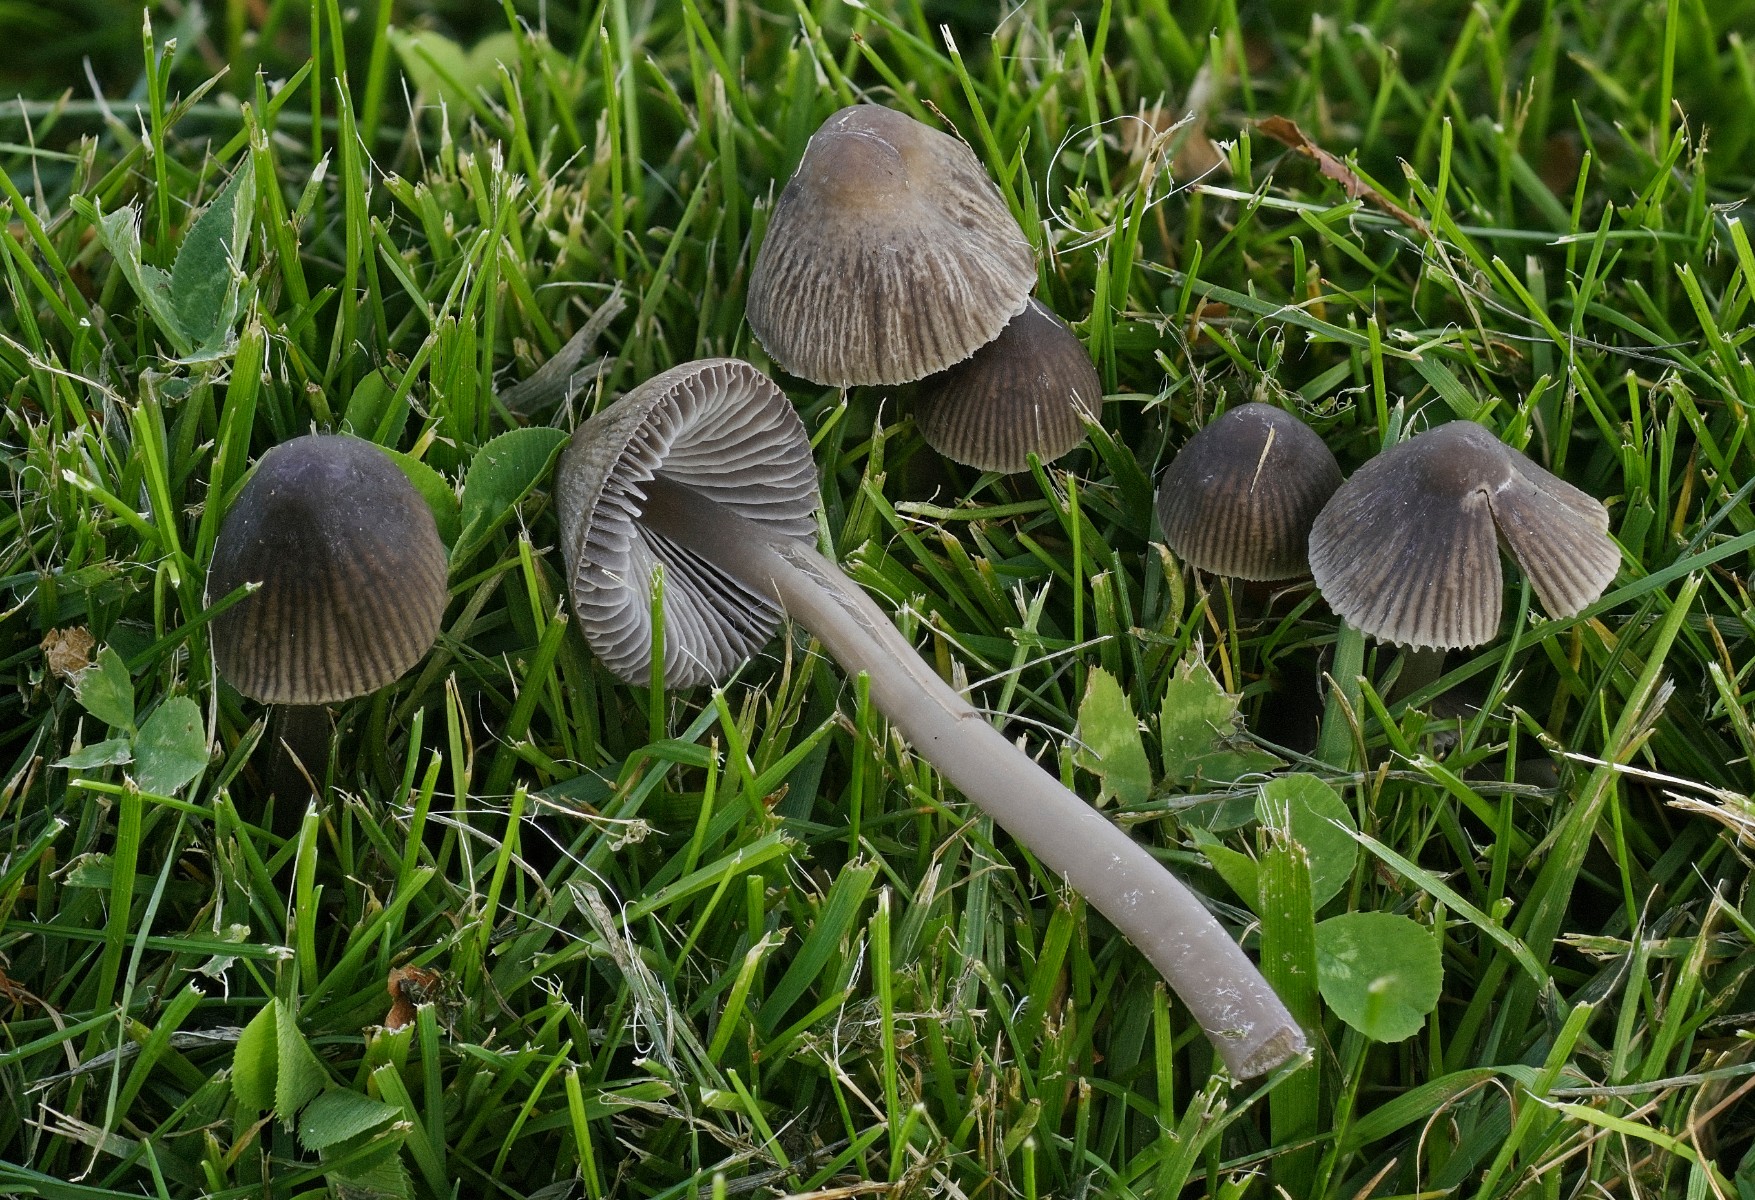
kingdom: Fungi
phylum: Basidiomycota
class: Agaricomycetes
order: Agaricales
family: Mycenaceae
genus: Mycena
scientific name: Mycena aetites
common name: plæne-huesvamp
